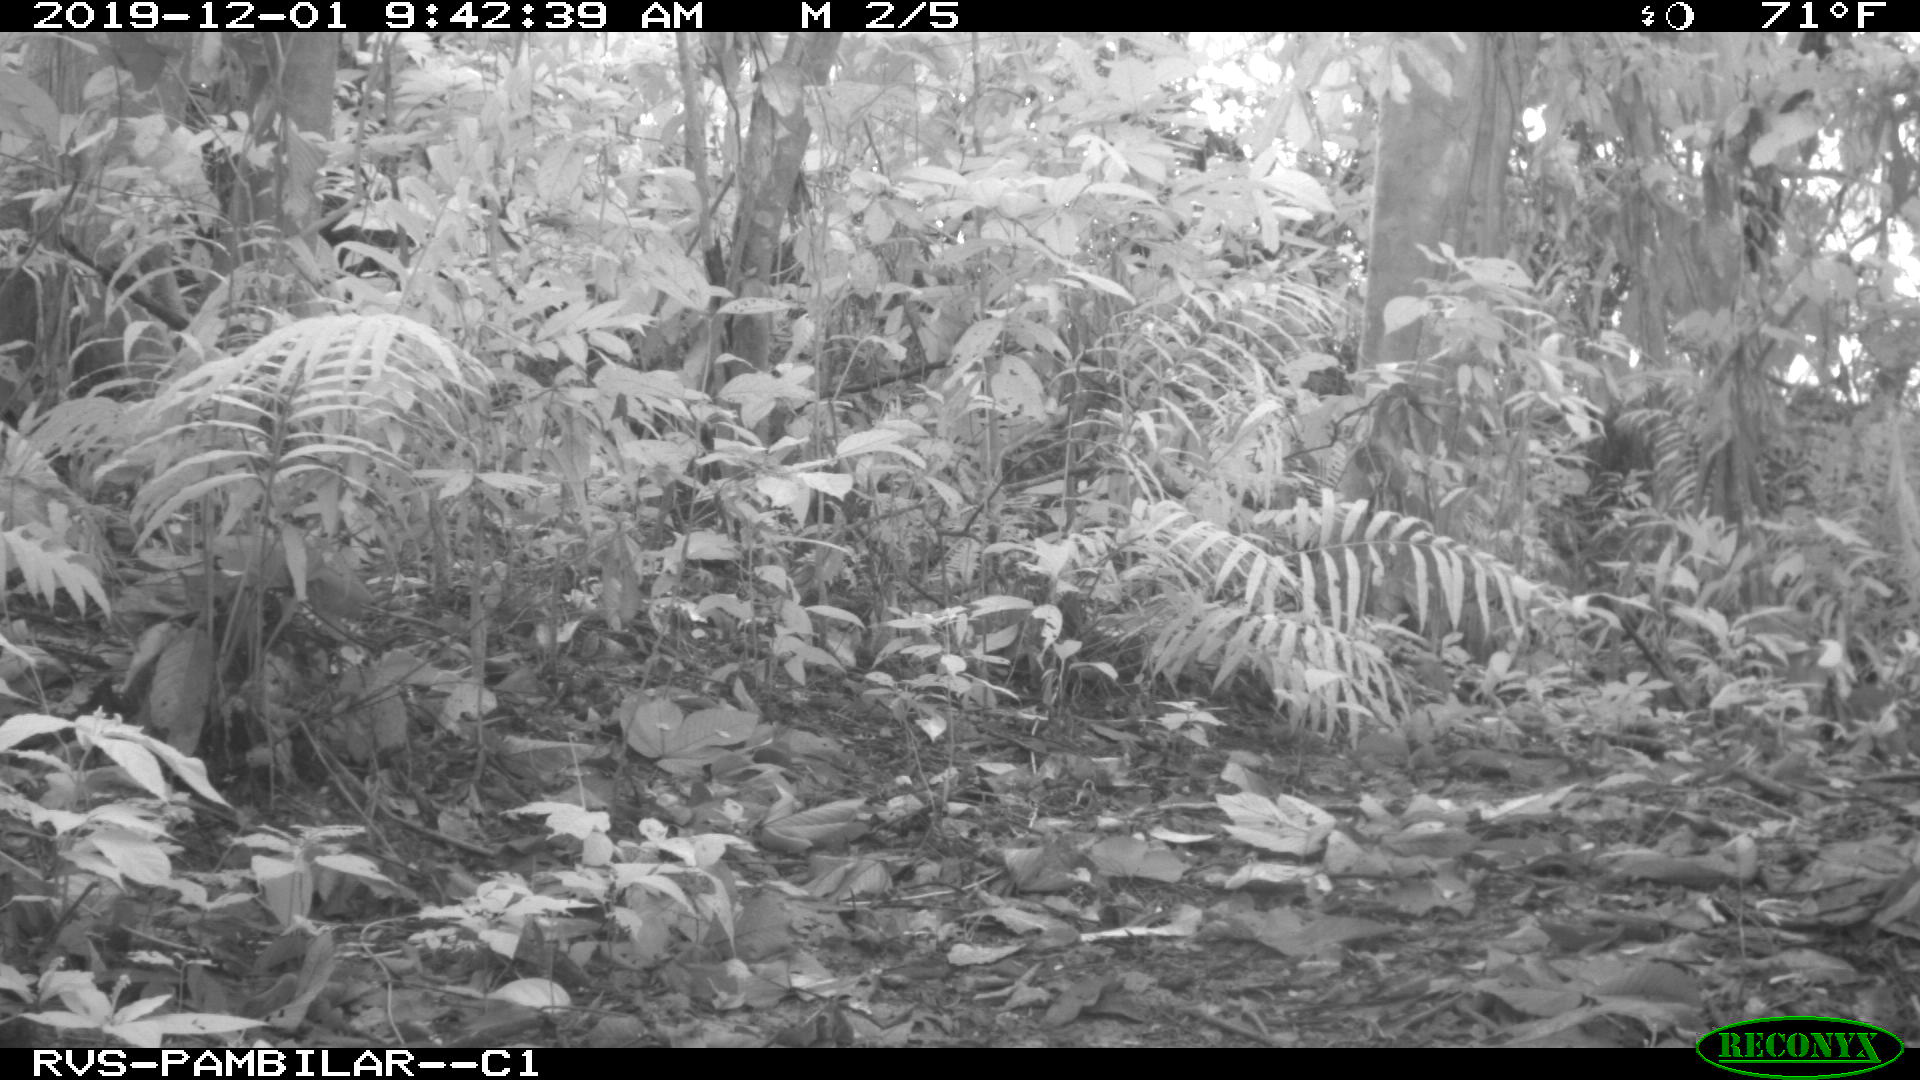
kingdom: Animalia
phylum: Chordata
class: Mammalia
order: Rodentia
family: Dasyproctidae
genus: Dasyprocta
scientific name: Dasyprocta punctata
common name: Central american agouti
